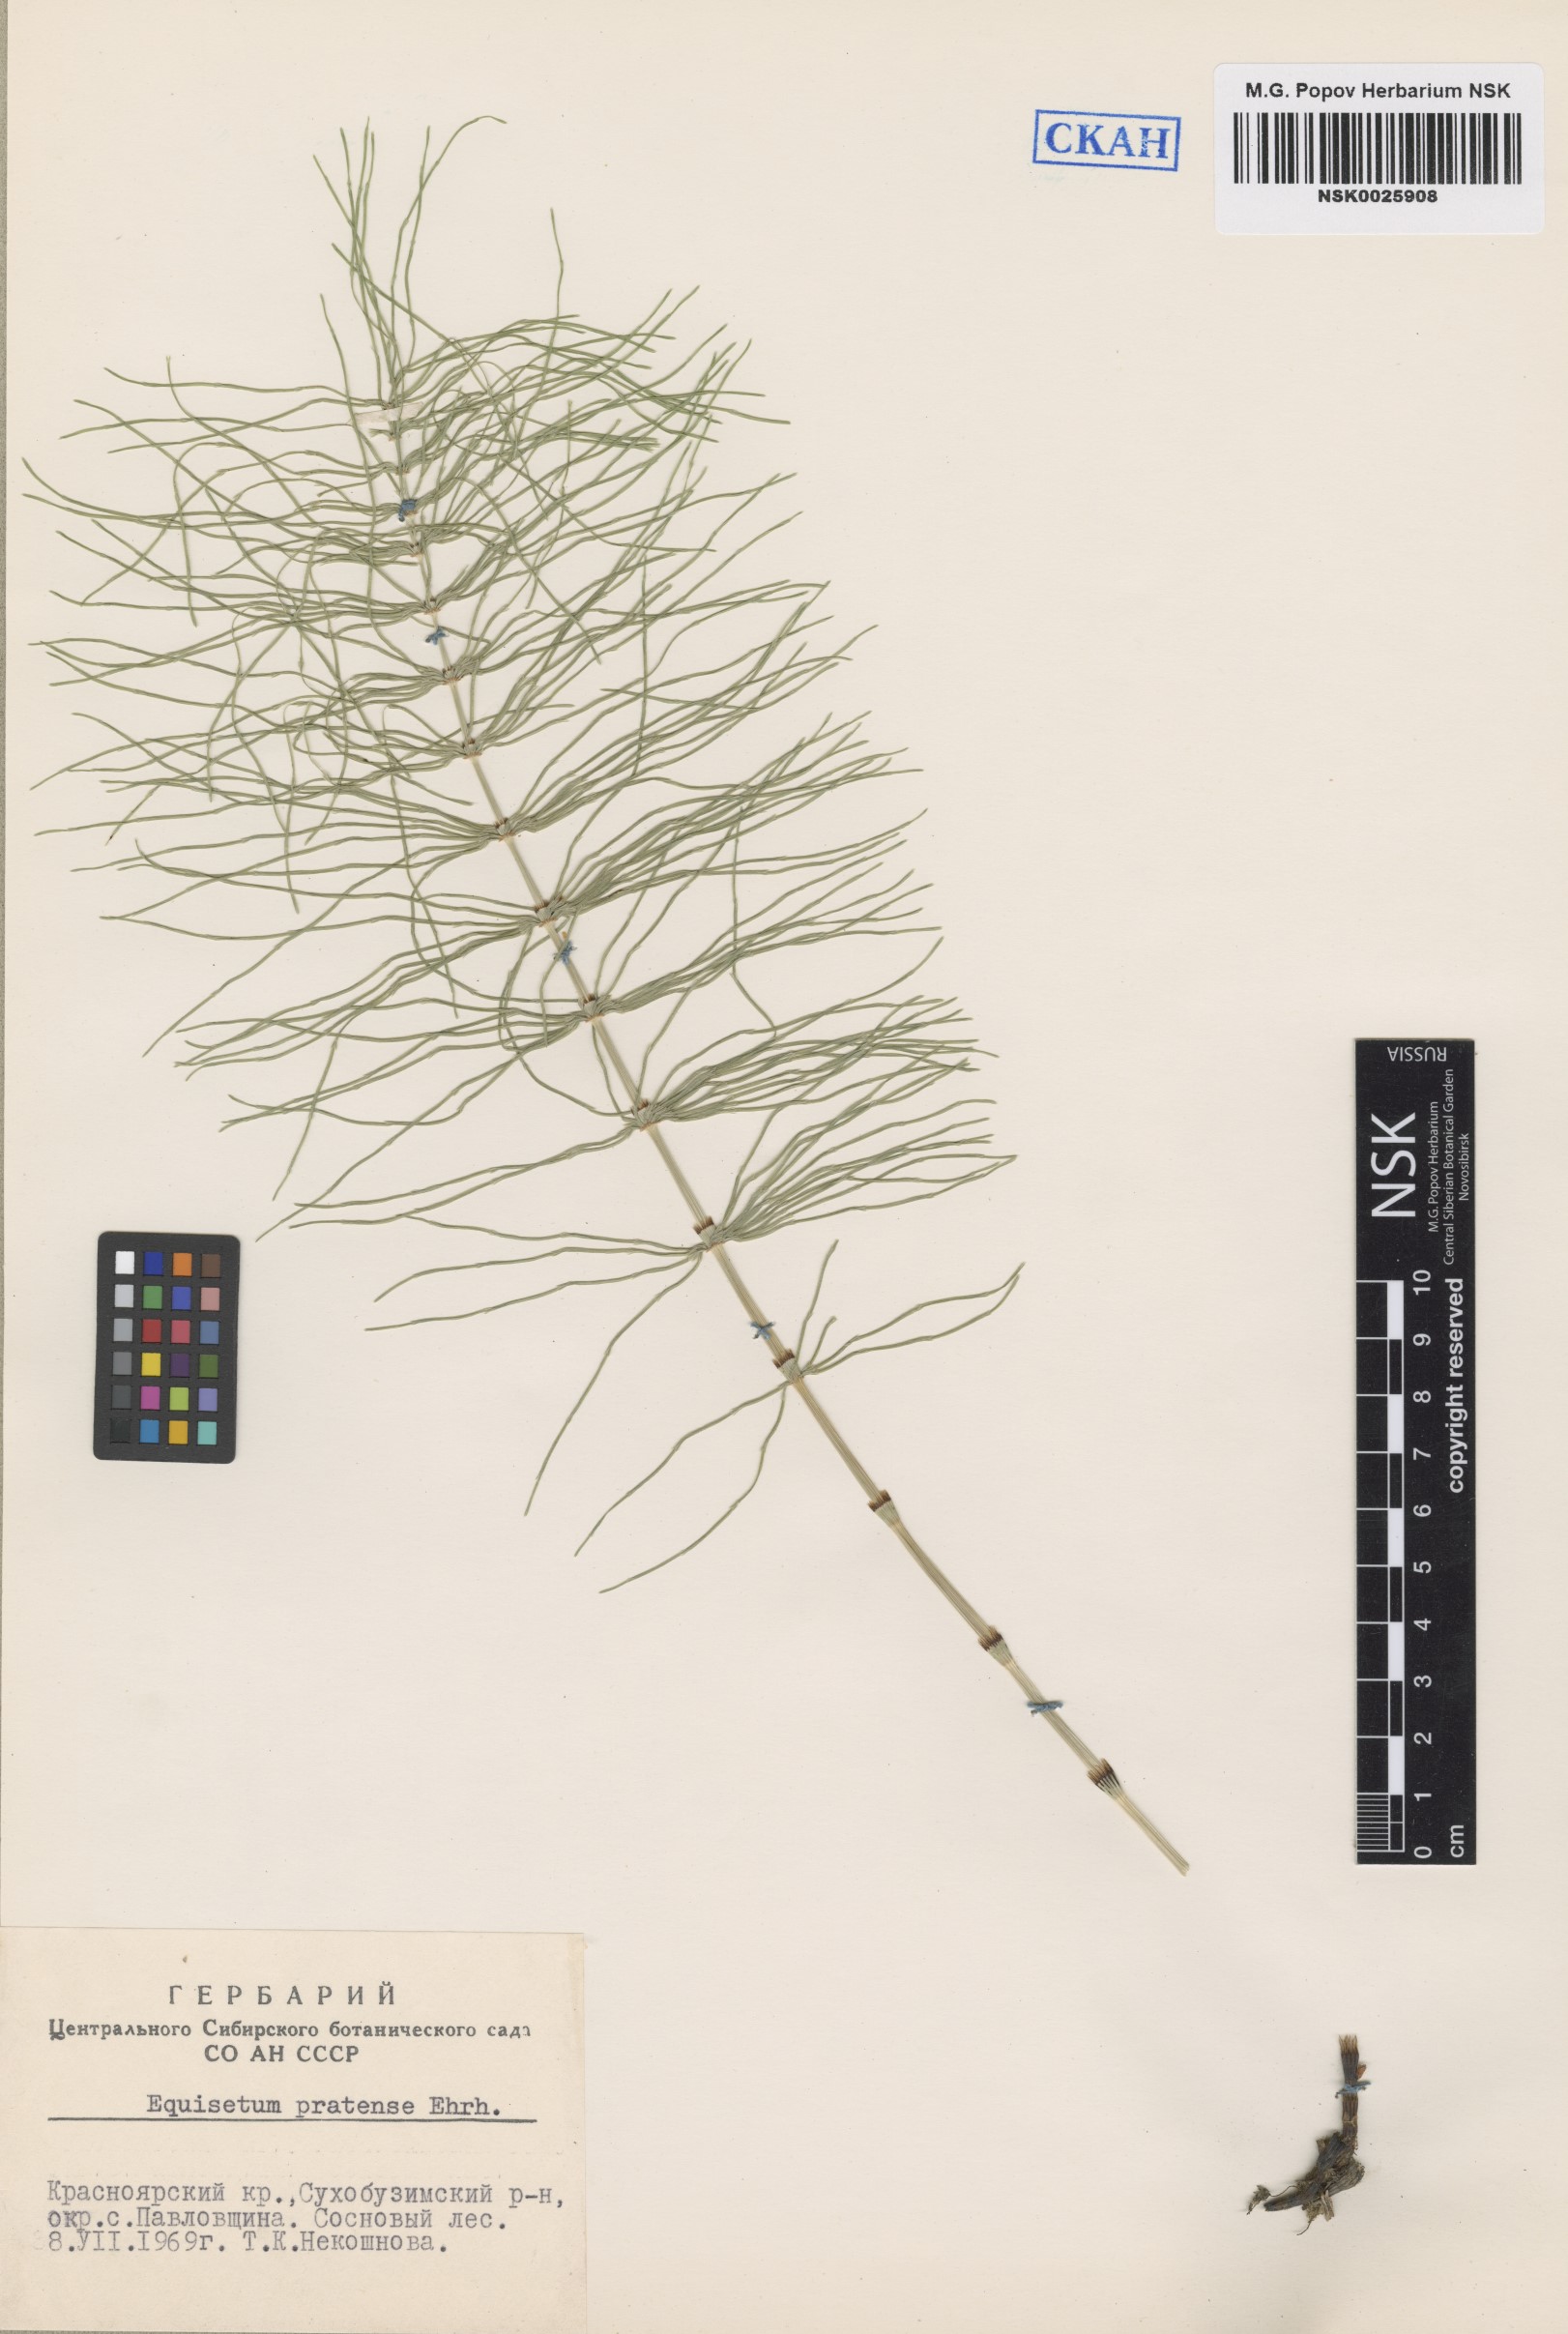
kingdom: Plantae
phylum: Tracheophyta
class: Polypodiopsida
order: Equisetales
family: Equisetaceae
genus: Equisetum
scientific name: Equisetum pratense
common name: Meadow horsetail
